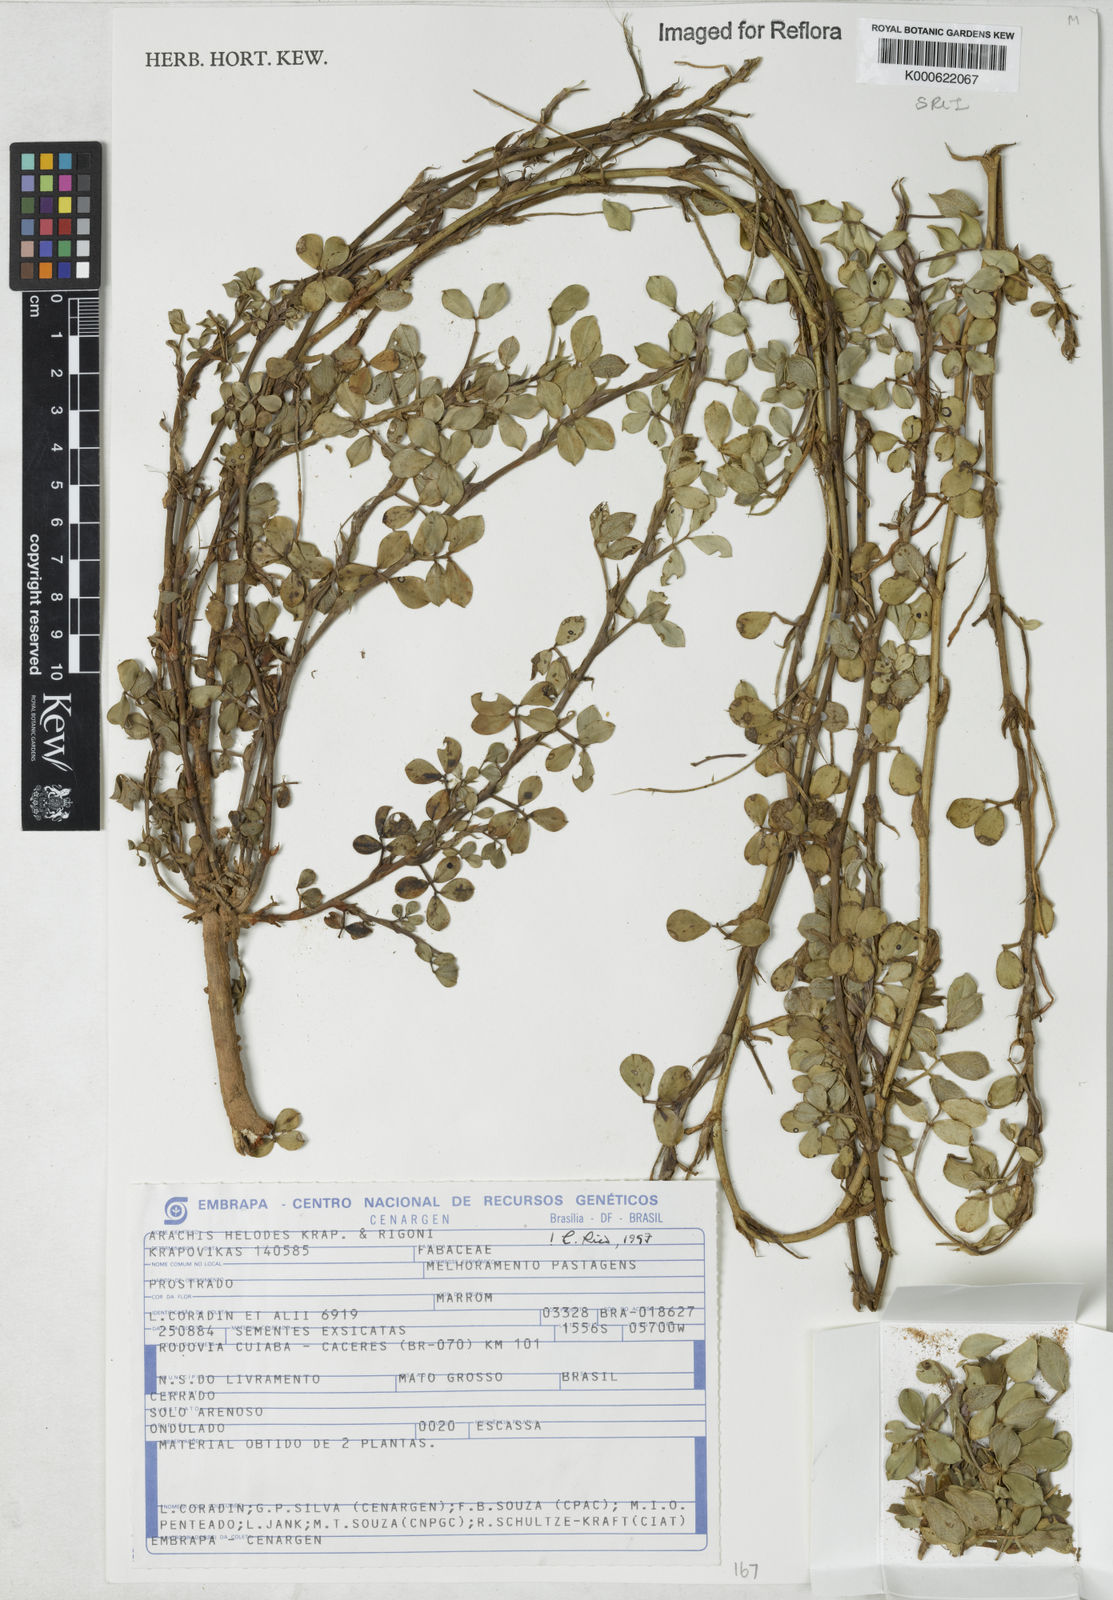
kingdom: Plantae
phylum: Tracheophyta
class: Magnoliopsida
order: Fabales
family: Fabaceae
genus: Arachis
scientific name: Arachis helodes
